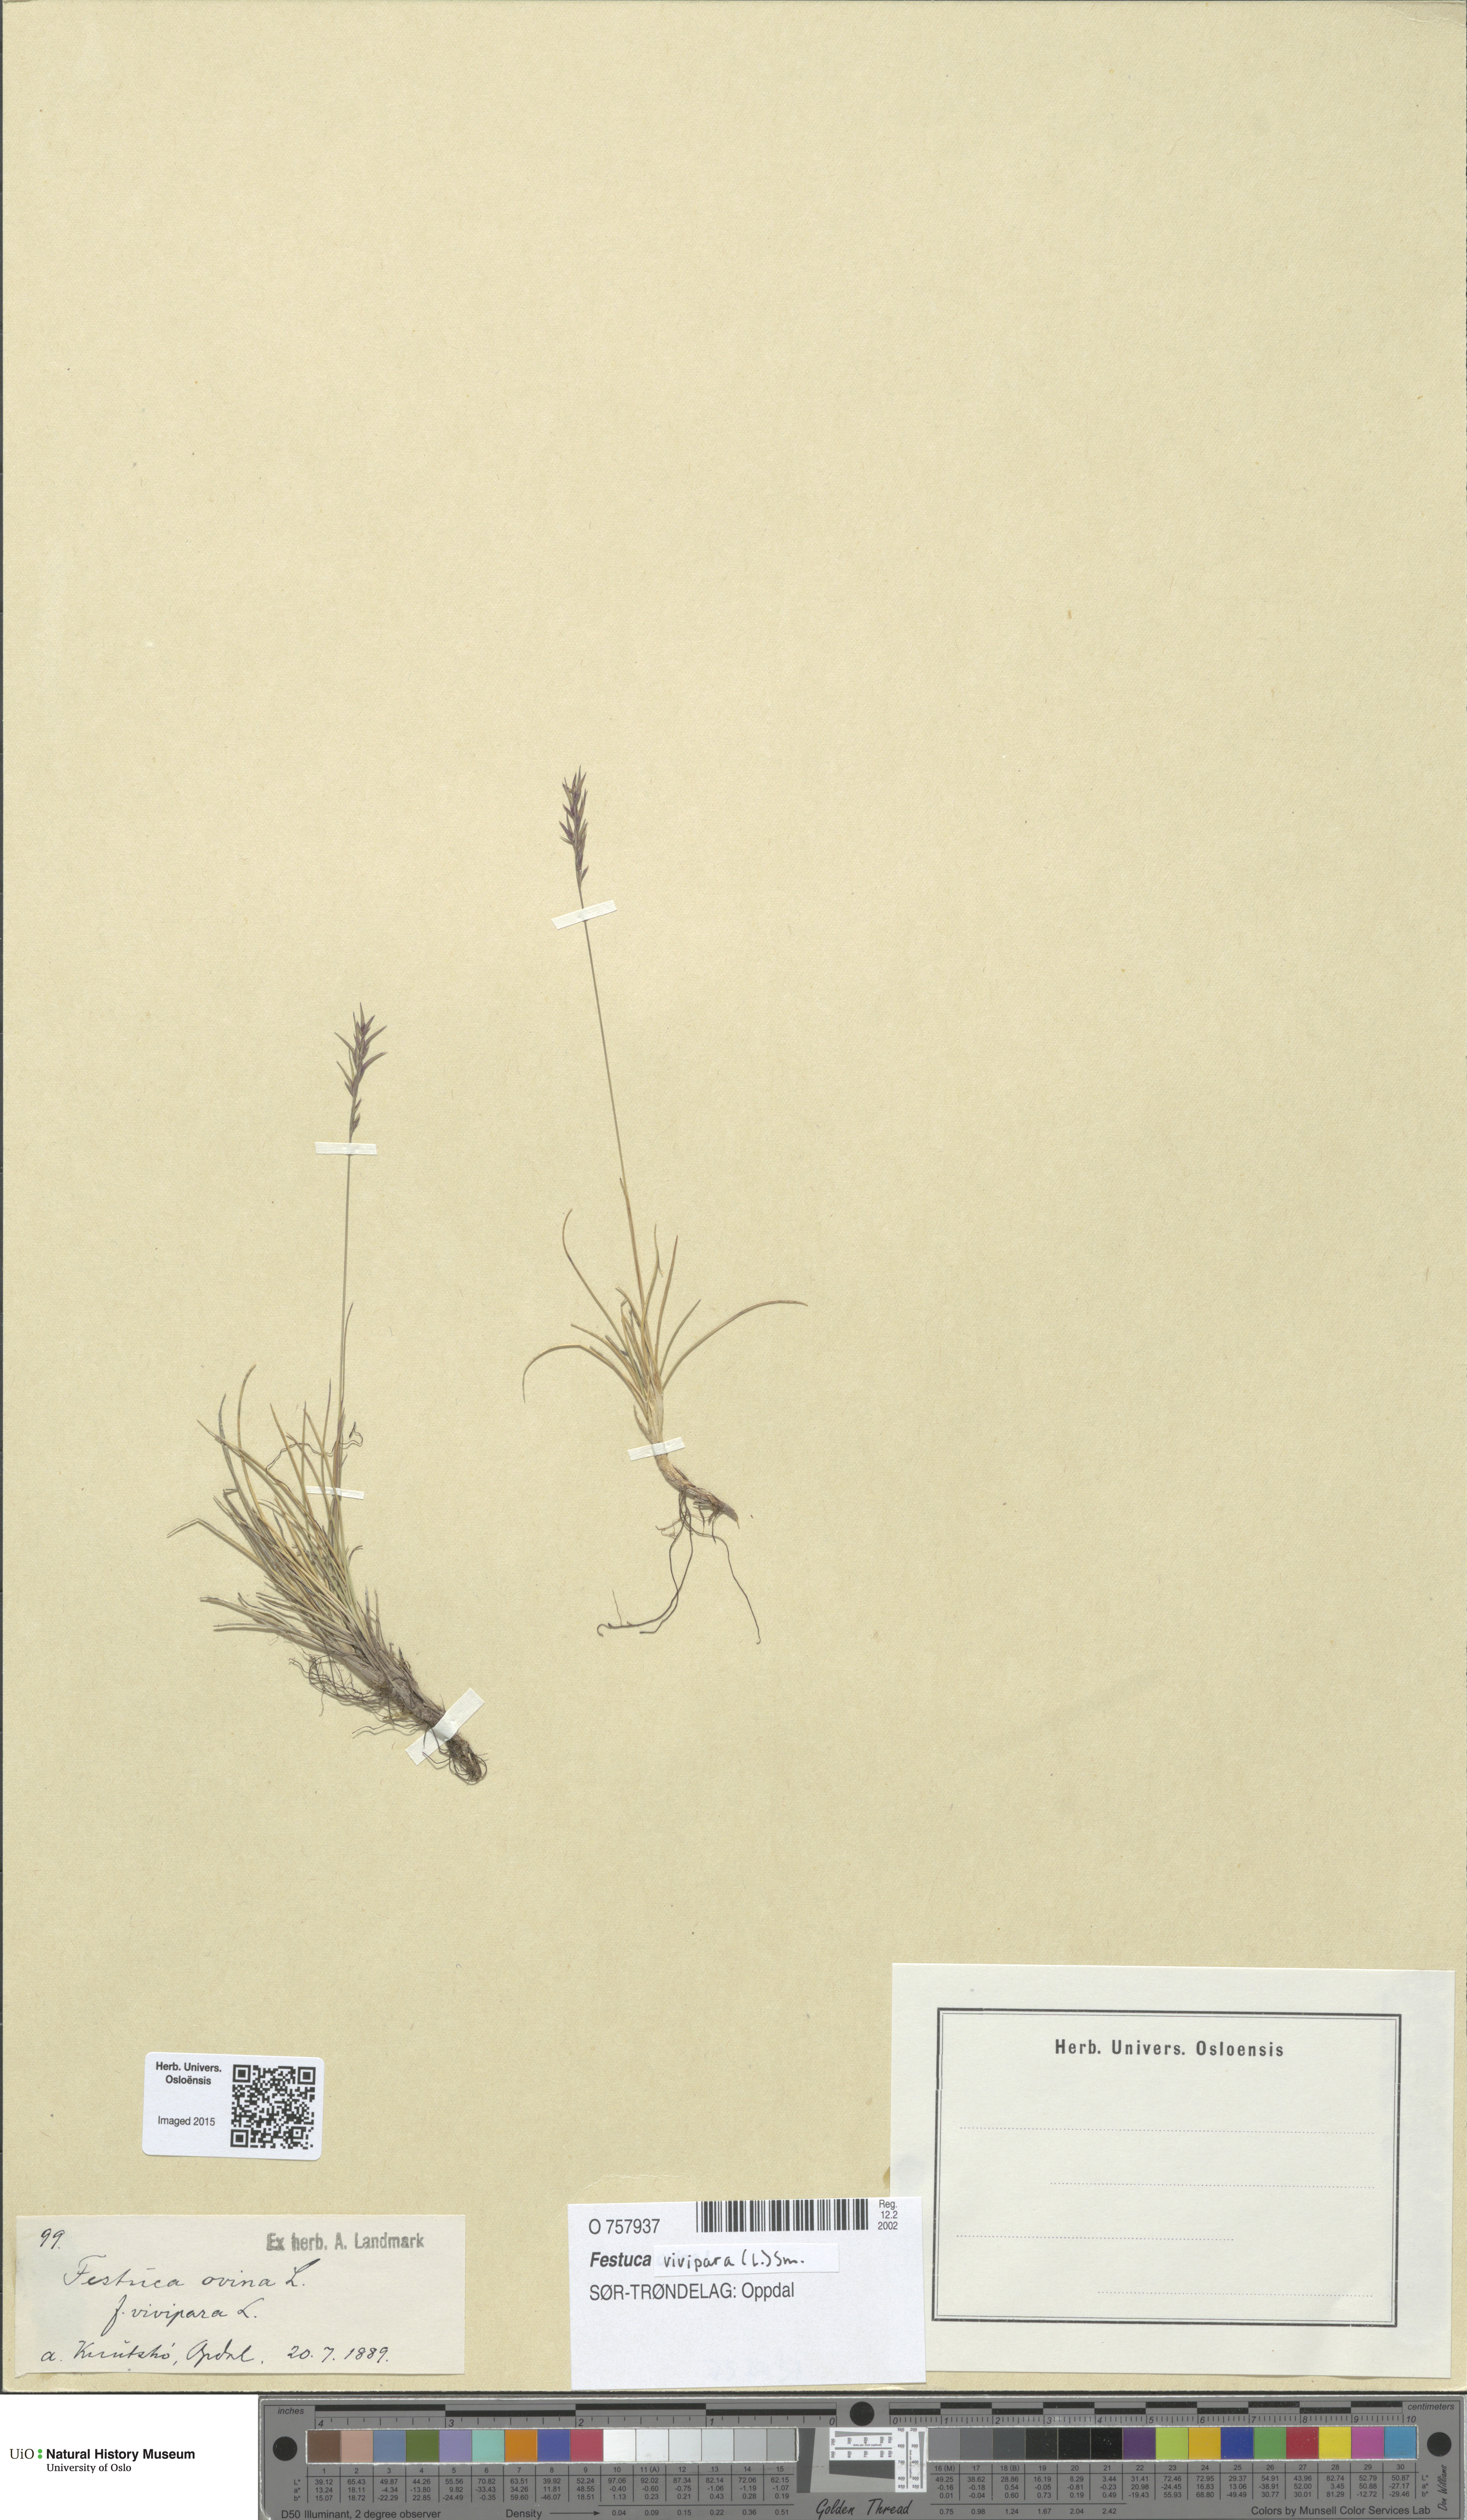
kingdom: Plantae
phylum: Tracheophyta
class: Liliopsida
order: Poales
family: Poaceae
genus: Festuca
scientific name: Festuca vivipara
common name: Viviparous sheep's-fescue
